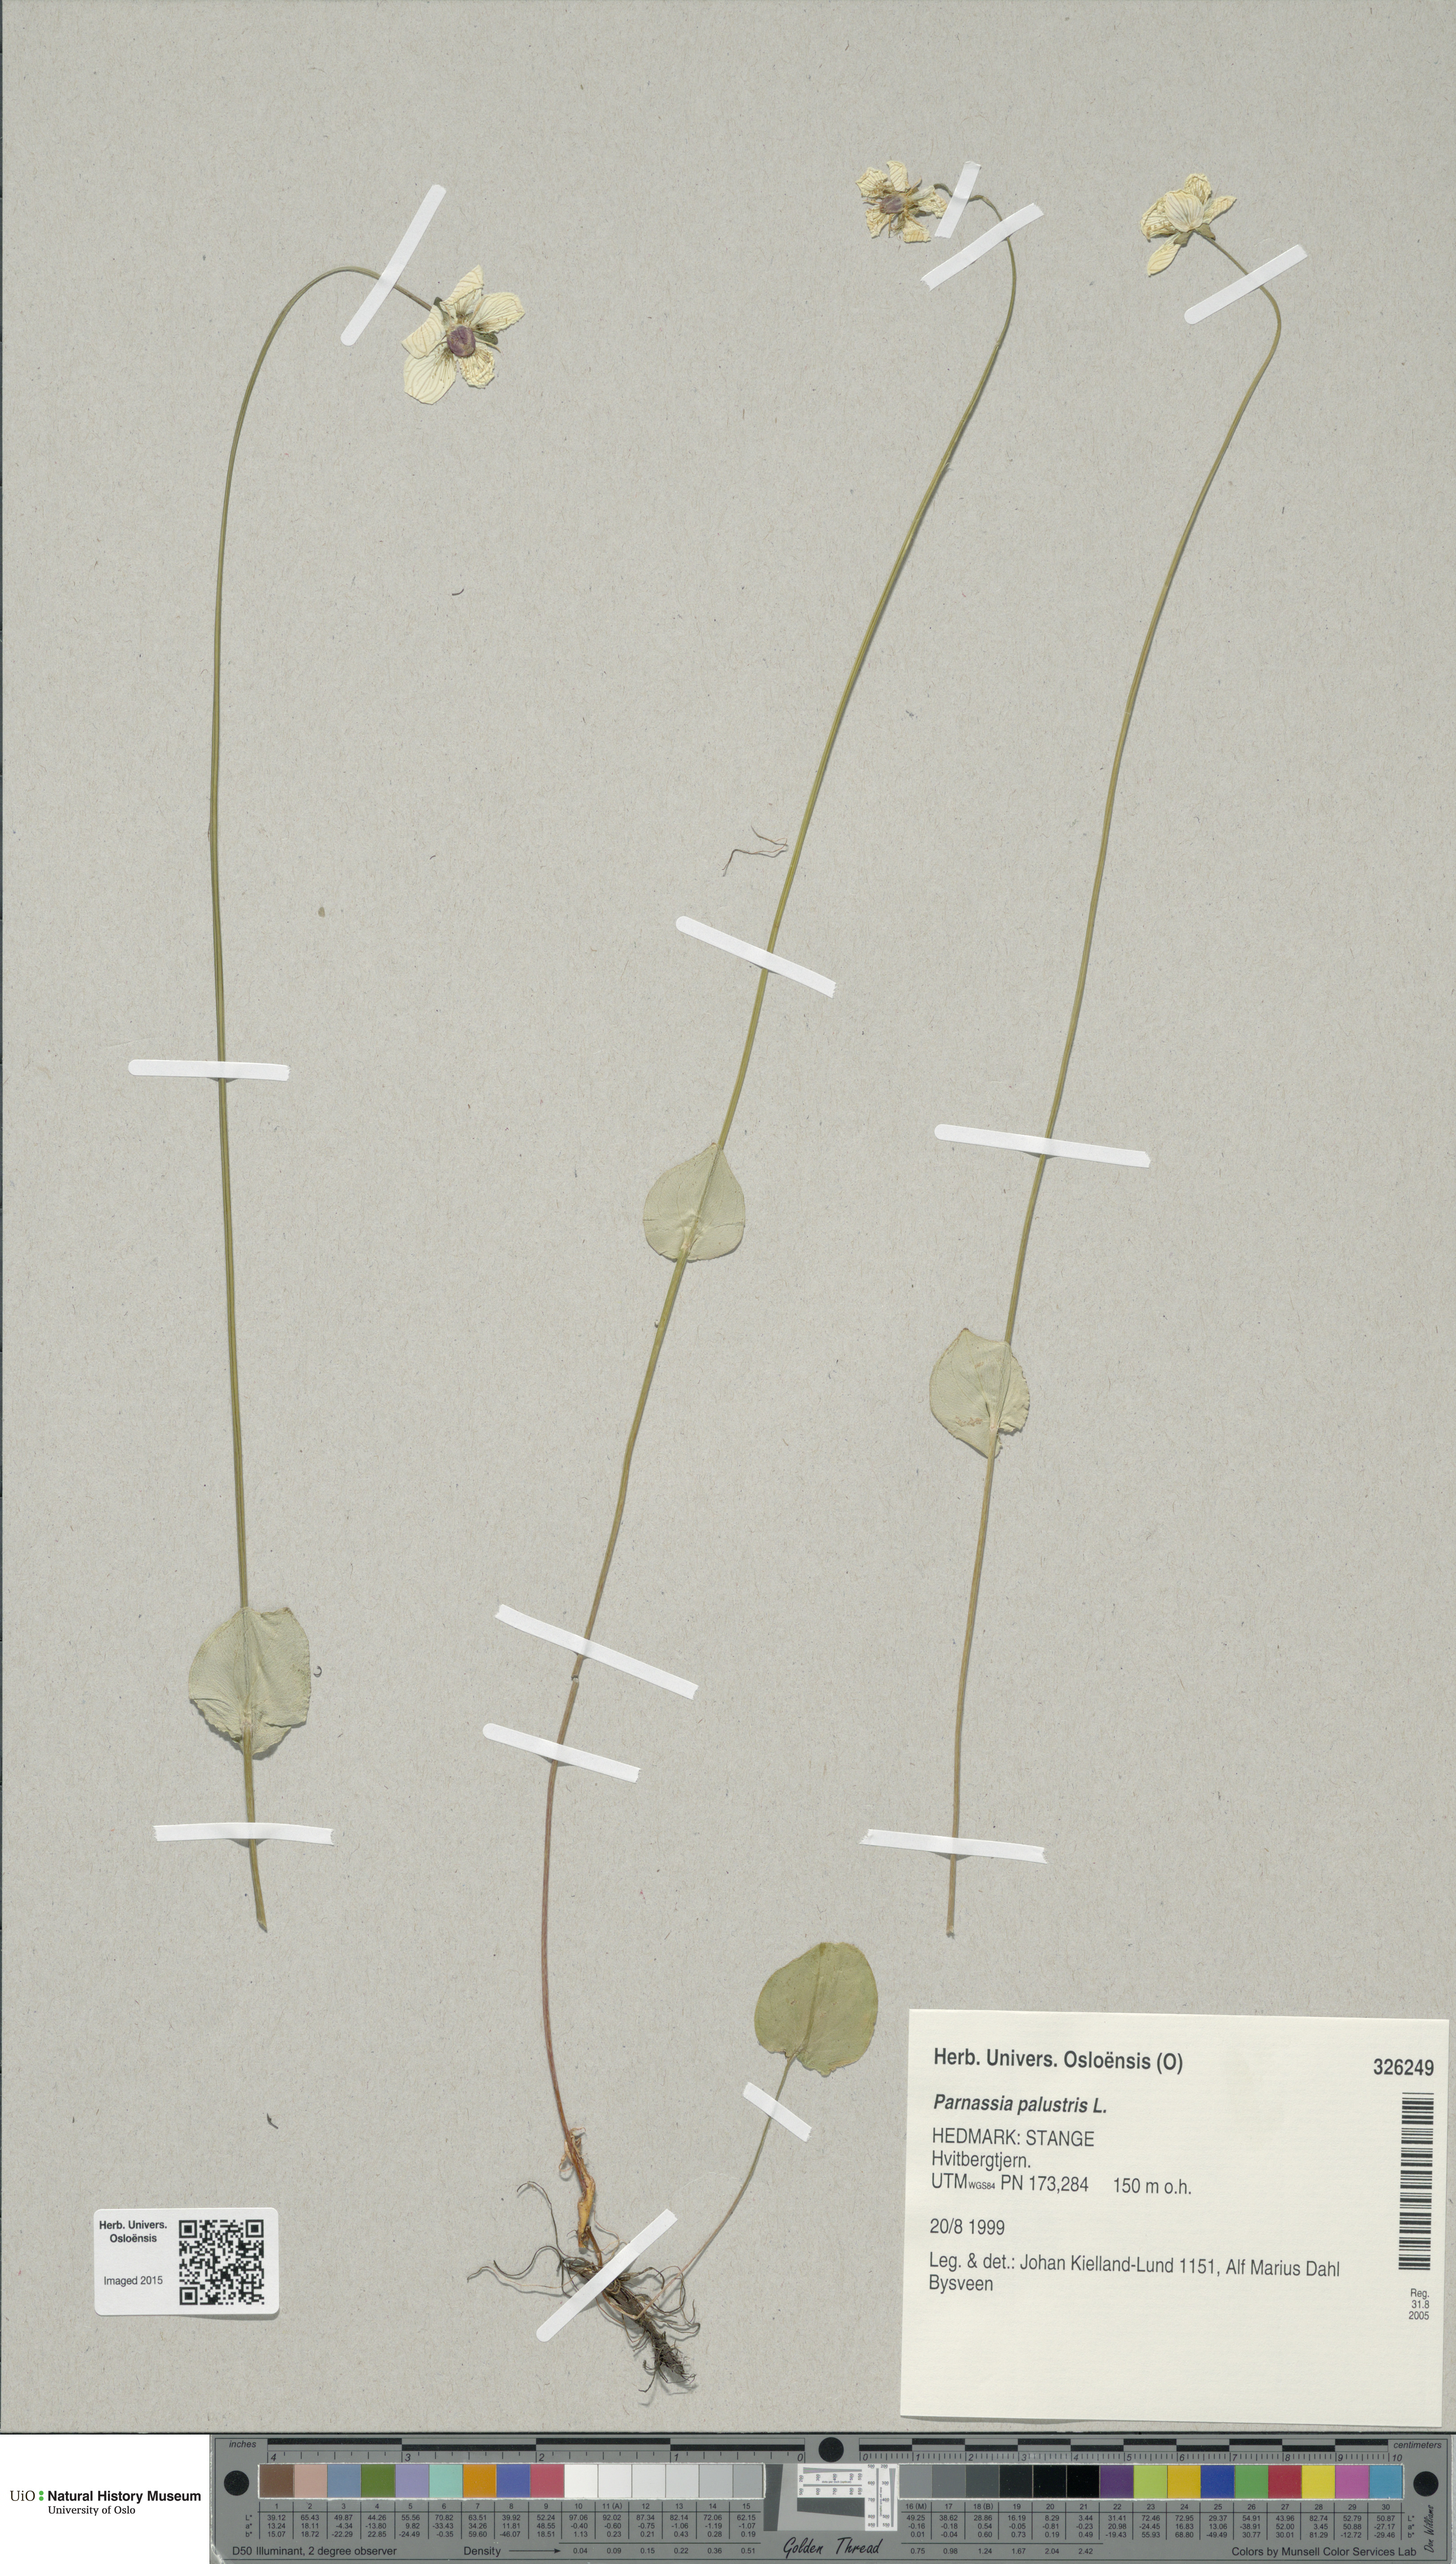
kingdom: Plantae
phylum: Tracheophyta
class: Magnoliopsida
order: Celastrales
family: Parnassiaceae
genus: Parnassia
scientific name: Parnassia palustris
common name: Grass-of-parnassus
